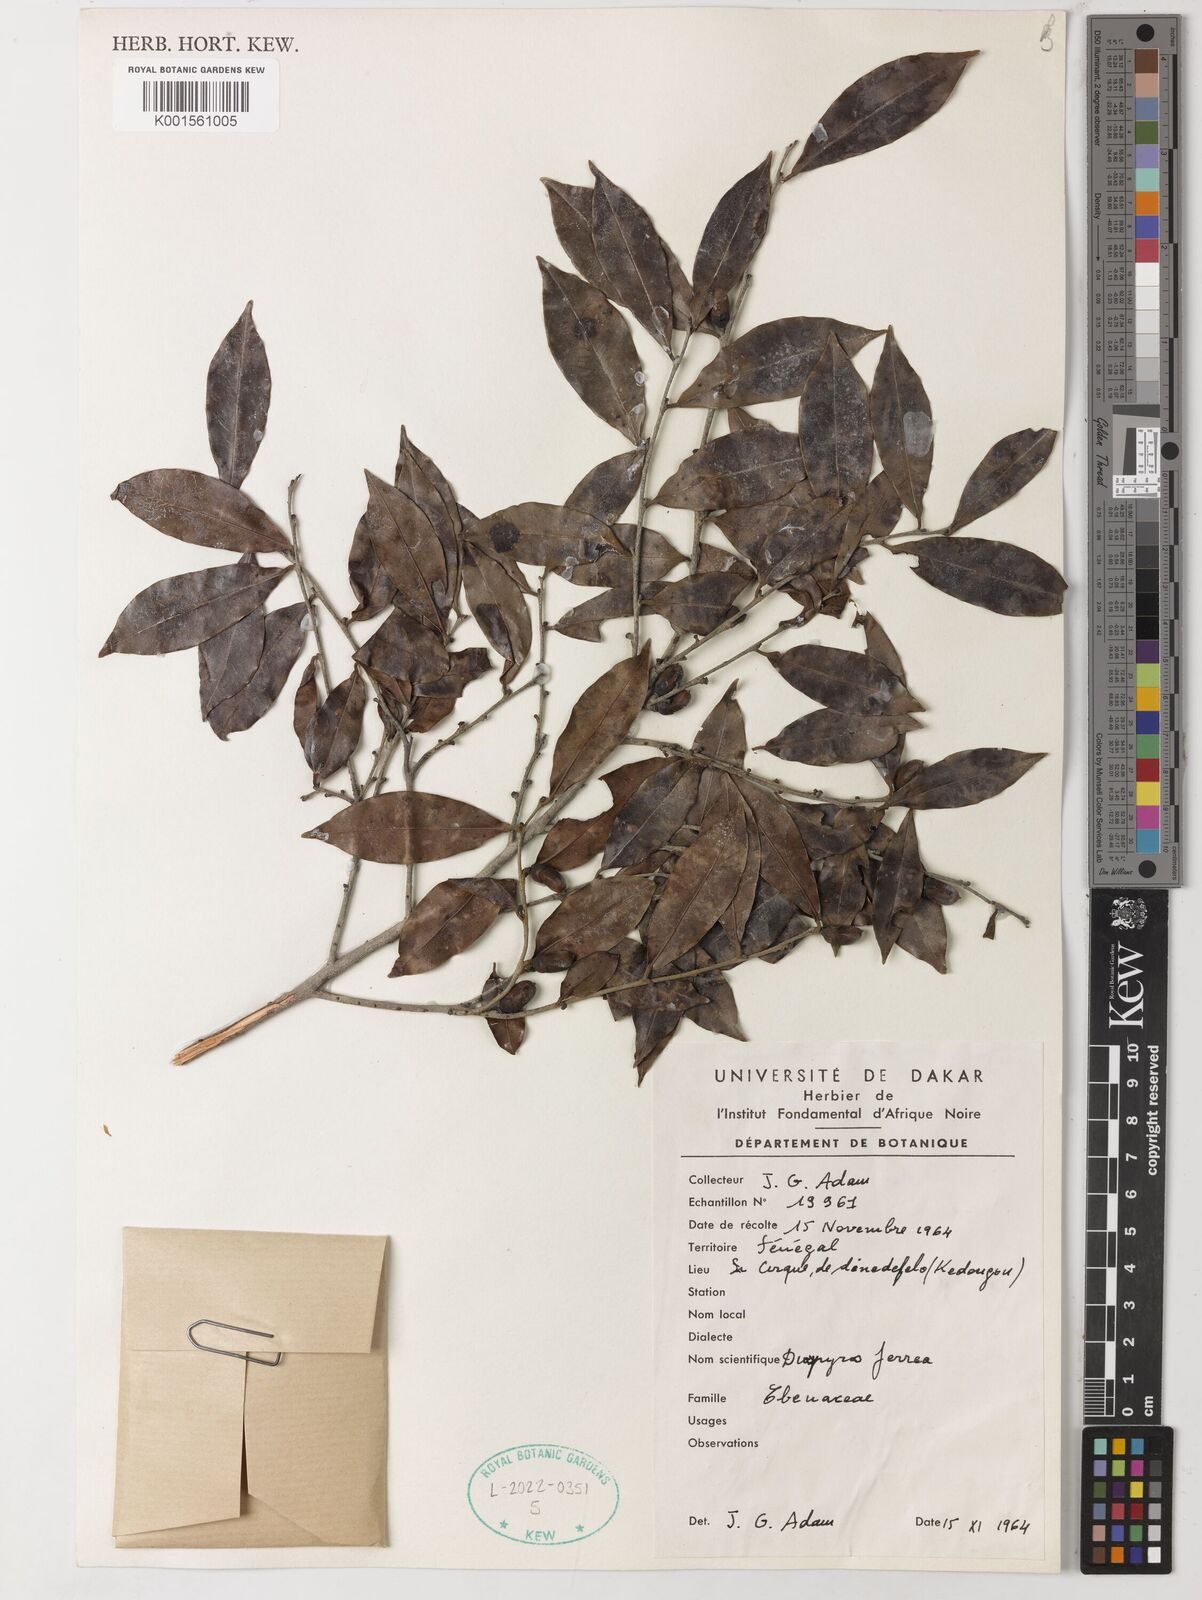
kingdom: Plantae
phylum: Tracheophyta
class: Magnoliopsida
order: Ericales
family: Ebenaceae
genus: Diospyros
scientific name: Diospyros ferrea
